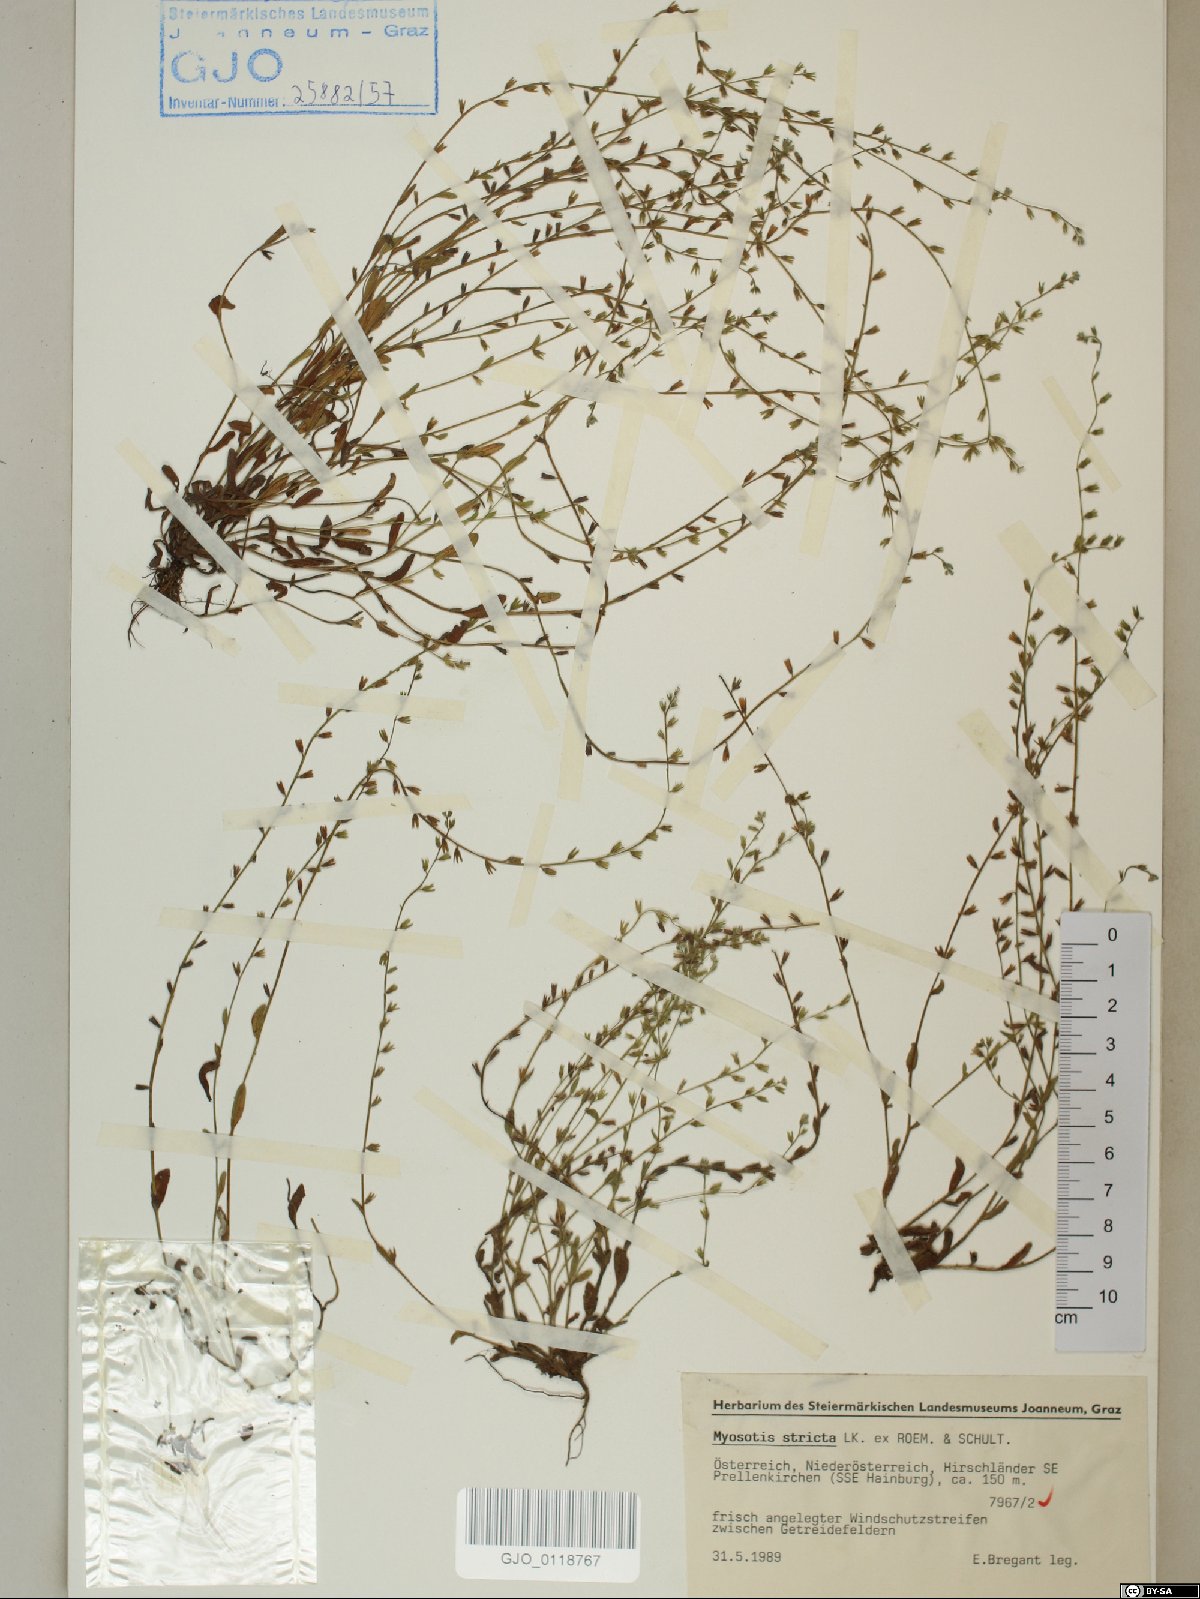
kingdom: Plantae
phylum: Tracheophyta
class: Magnoliopsida
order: Boraginales
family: Boraginaceae
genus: Myosotis
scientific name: Myosotis stricta
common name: Strict forget-me-not
